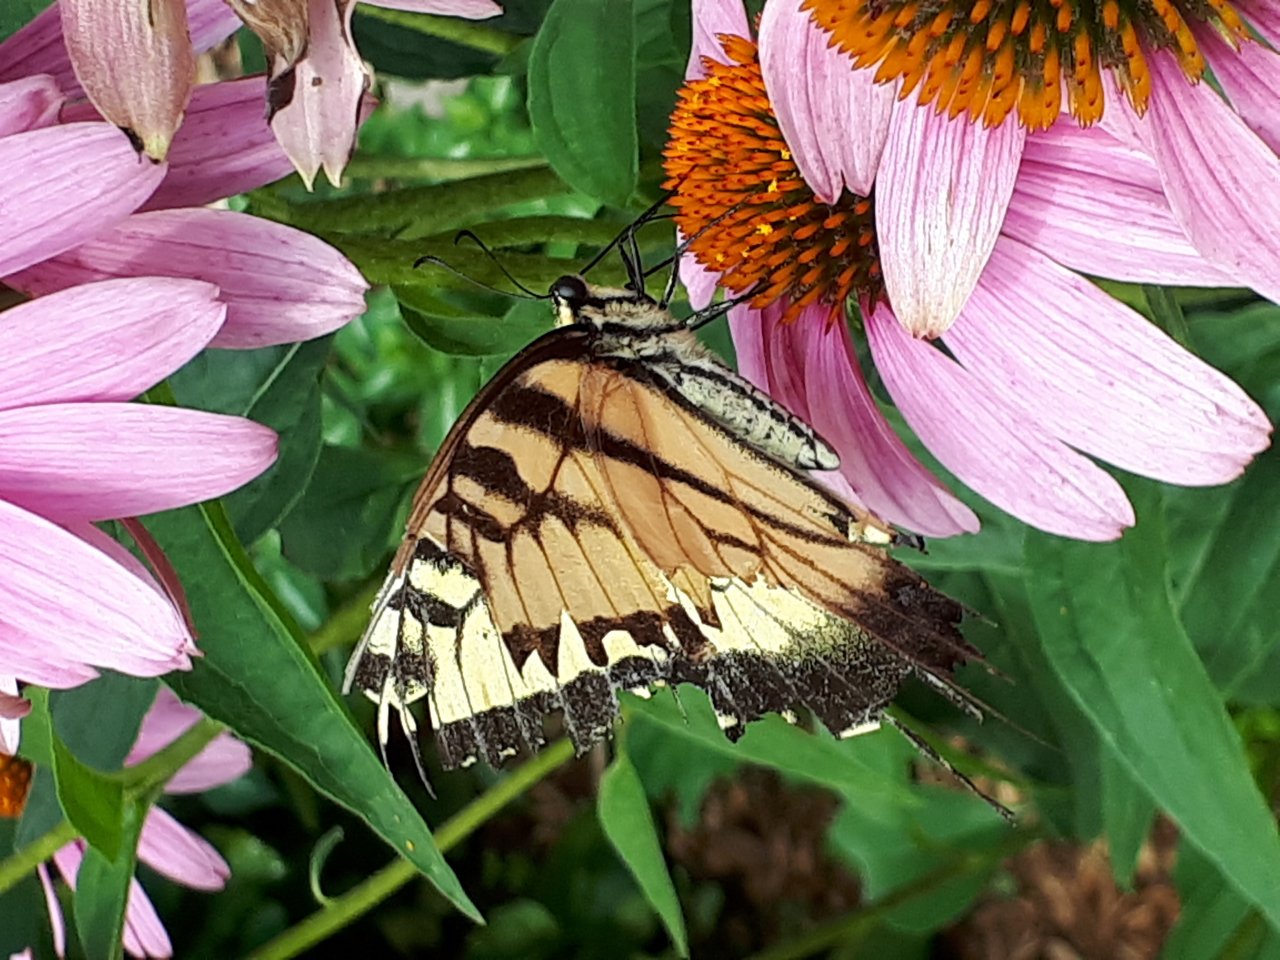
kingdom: Animalia
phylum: Arthropoda
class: Insecta
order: Lepidoptera
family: Papilionidae
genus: Pterourus
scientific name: Pterourus
